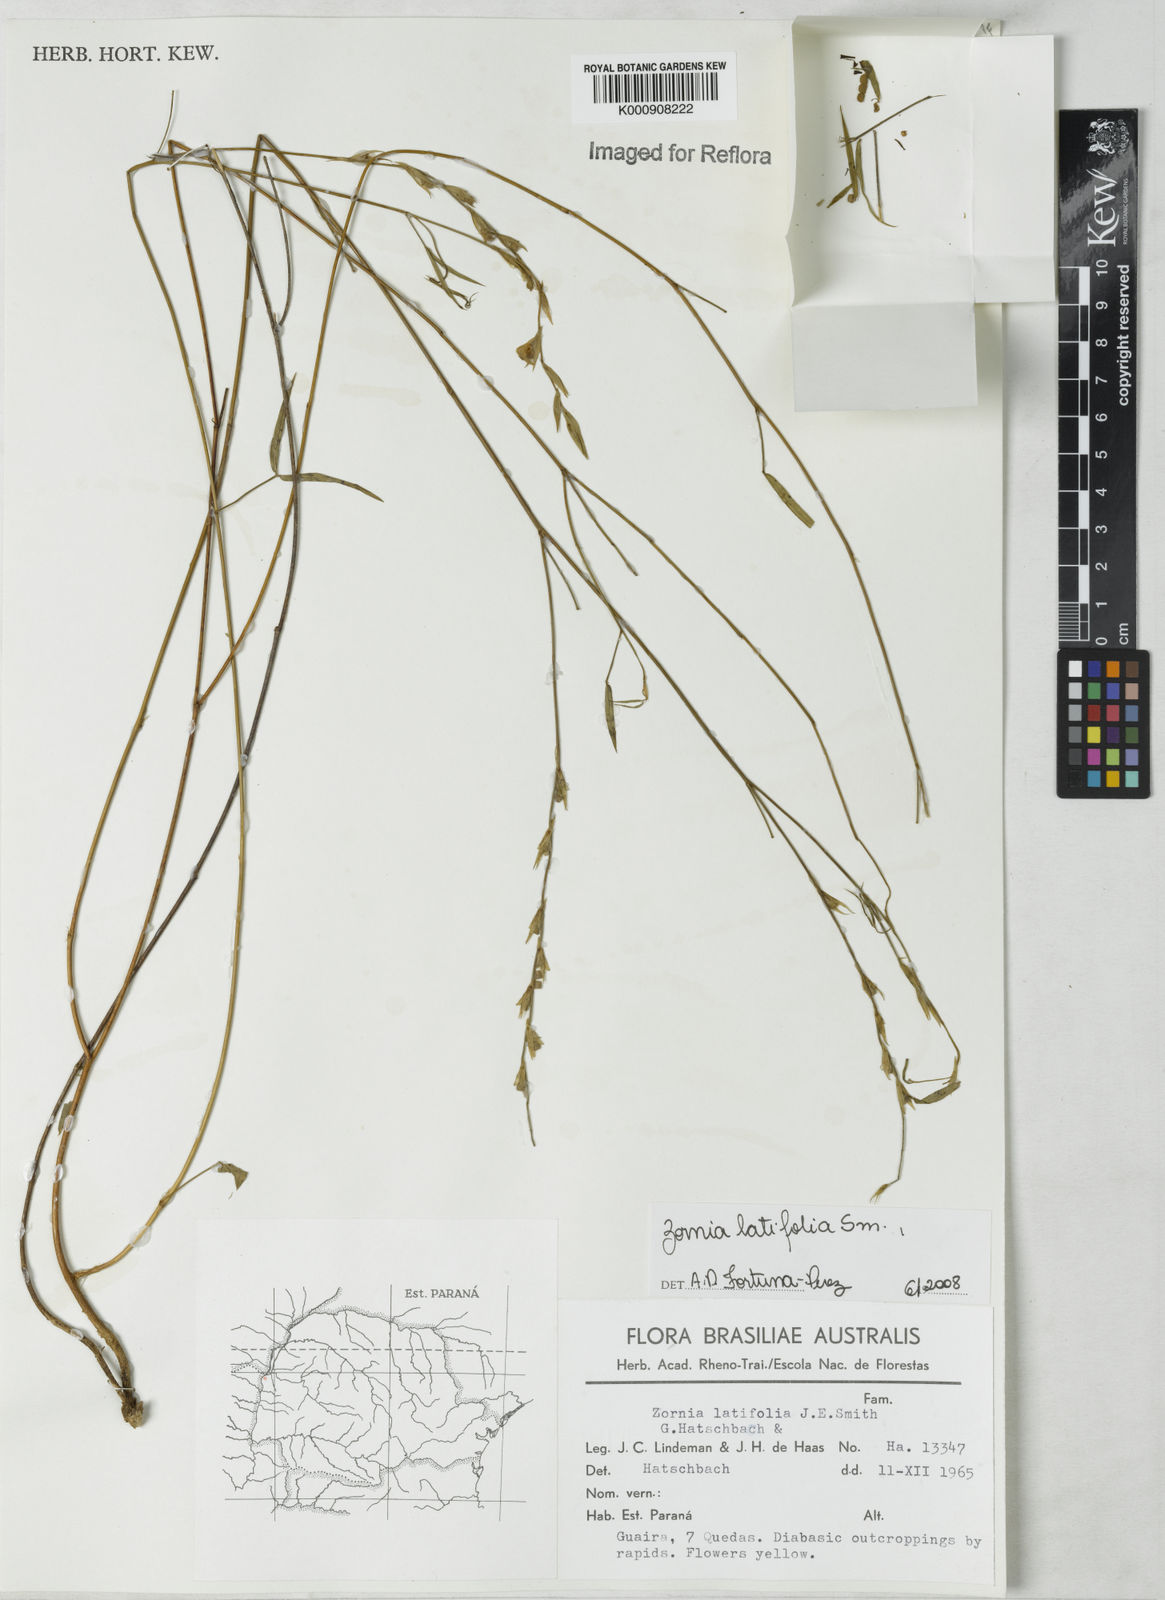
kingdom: Plantae
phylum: Tracheophyta
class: Magnoliopsida
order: Fabales
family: Fabaceae
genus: Zornia
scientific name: Zornia latifolia
